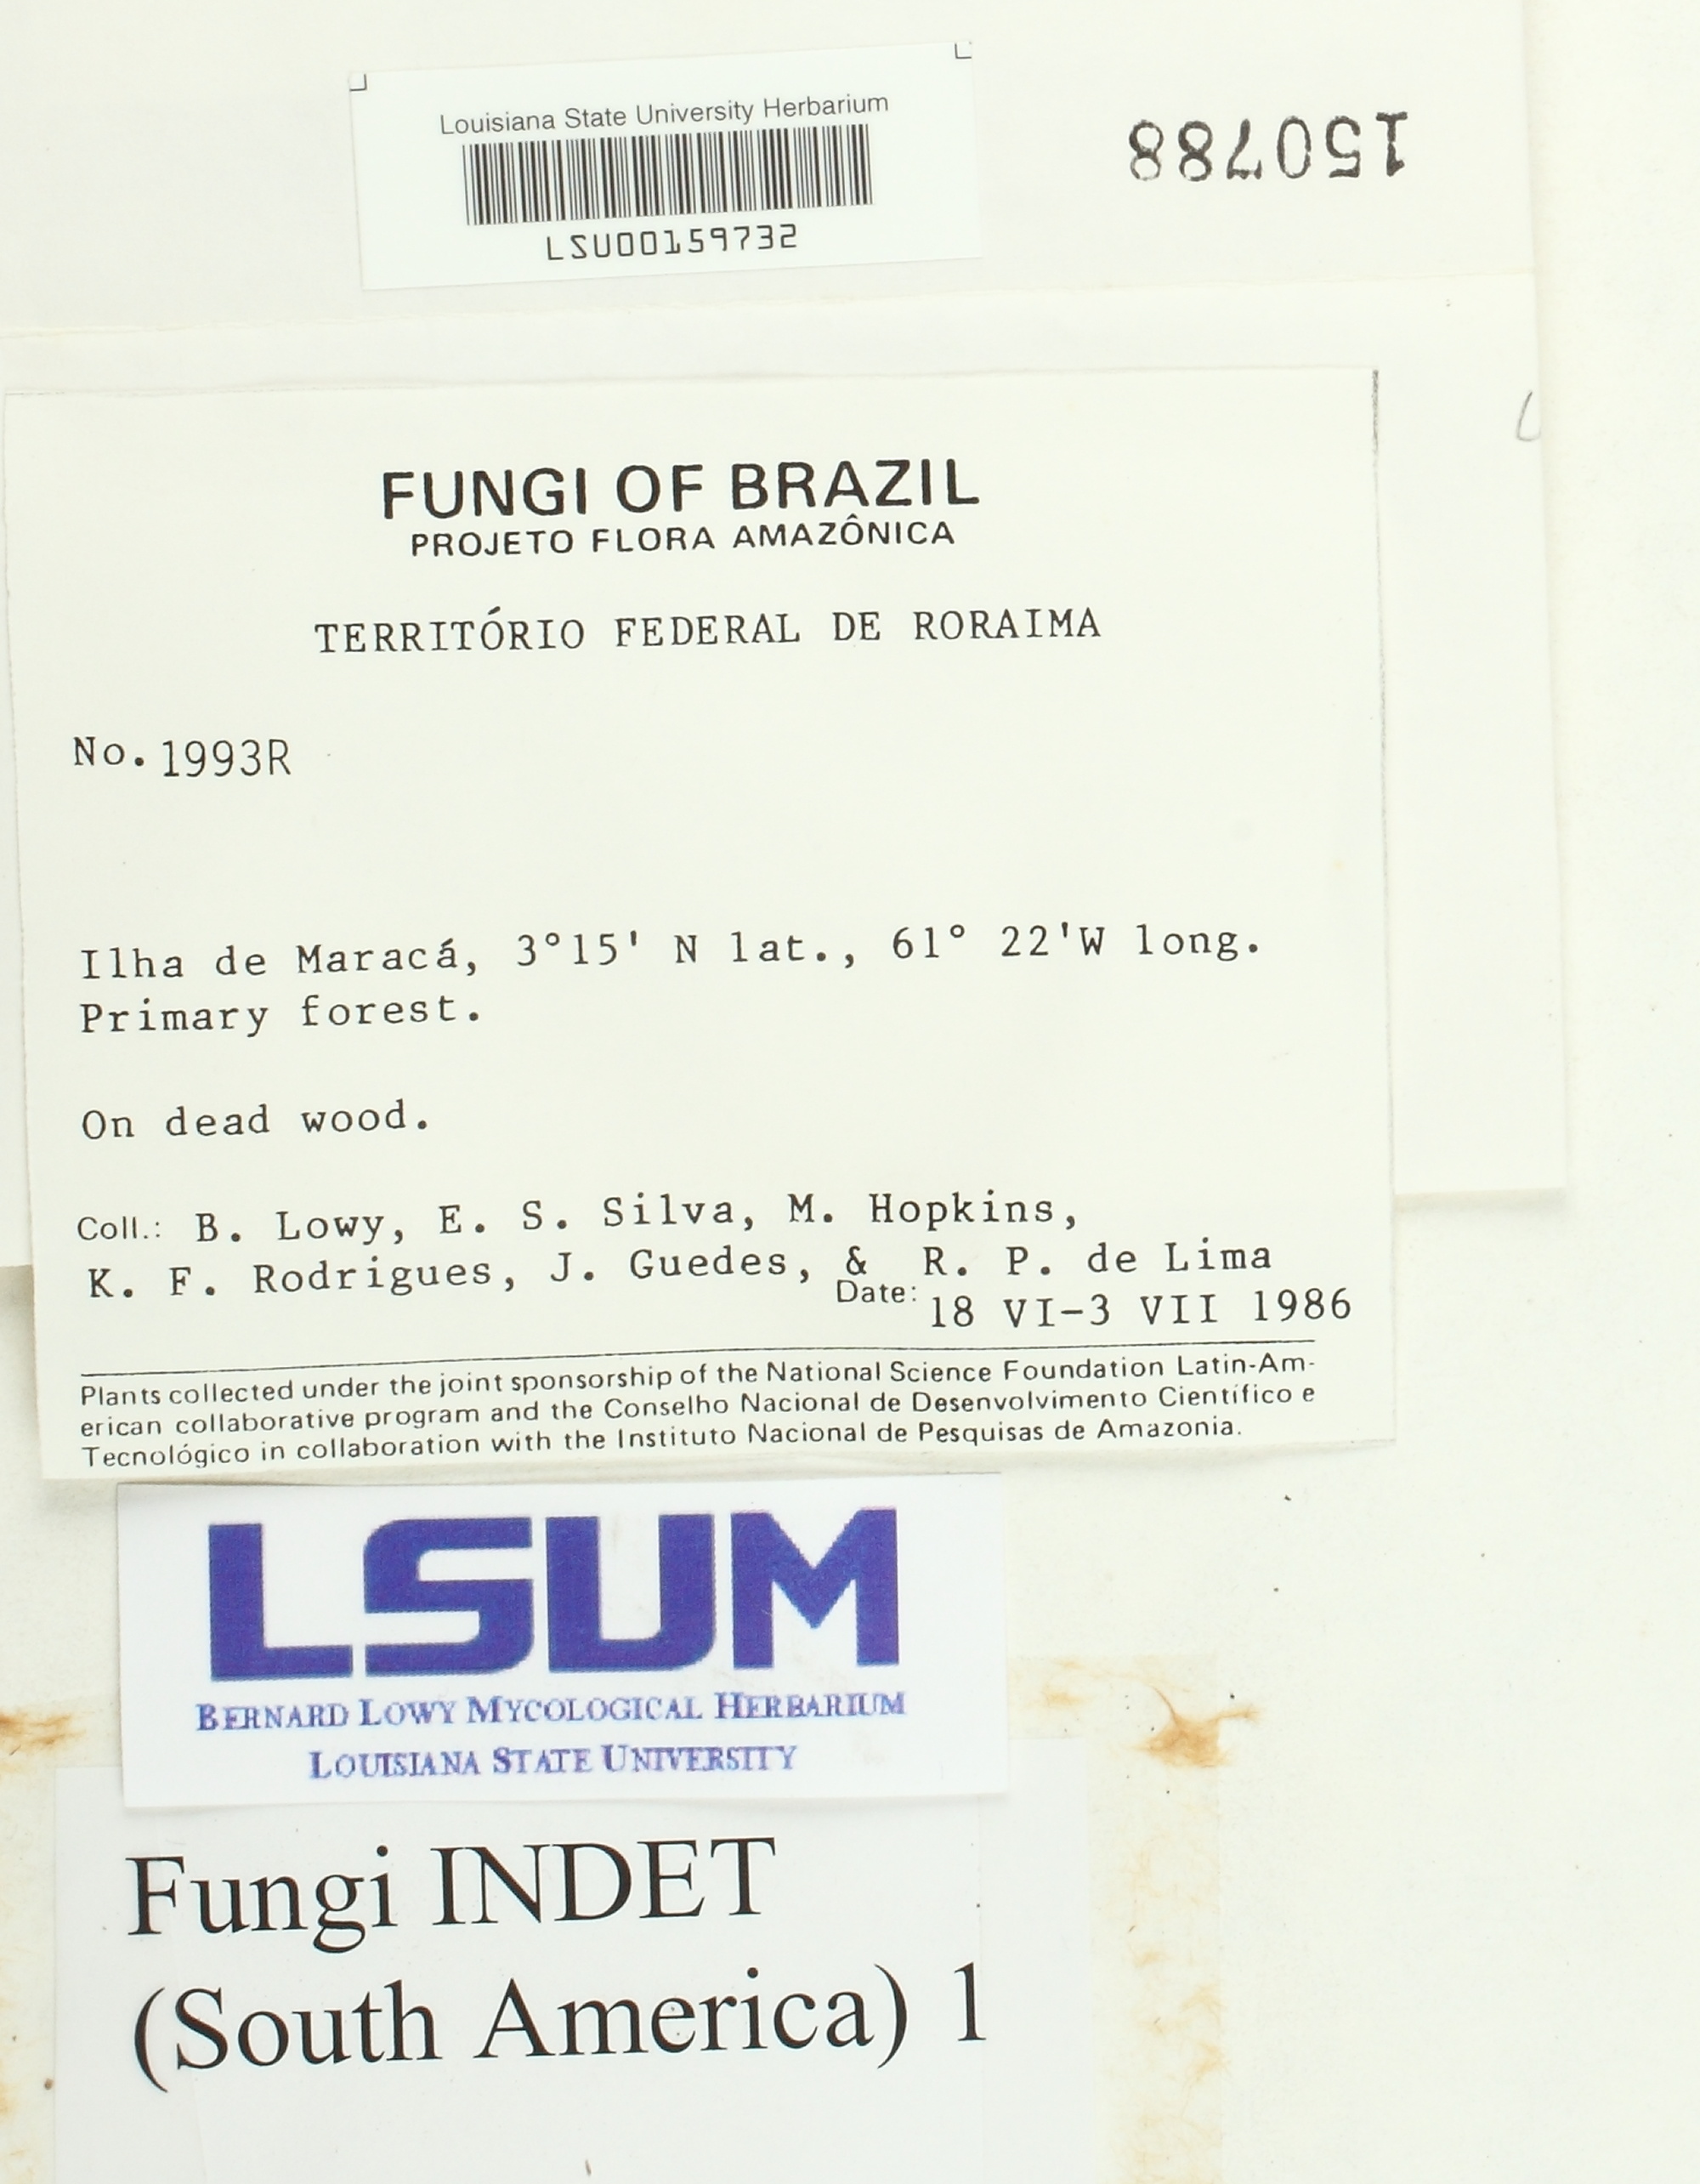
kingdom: Fungi
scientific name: Fungi
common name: Fungi
